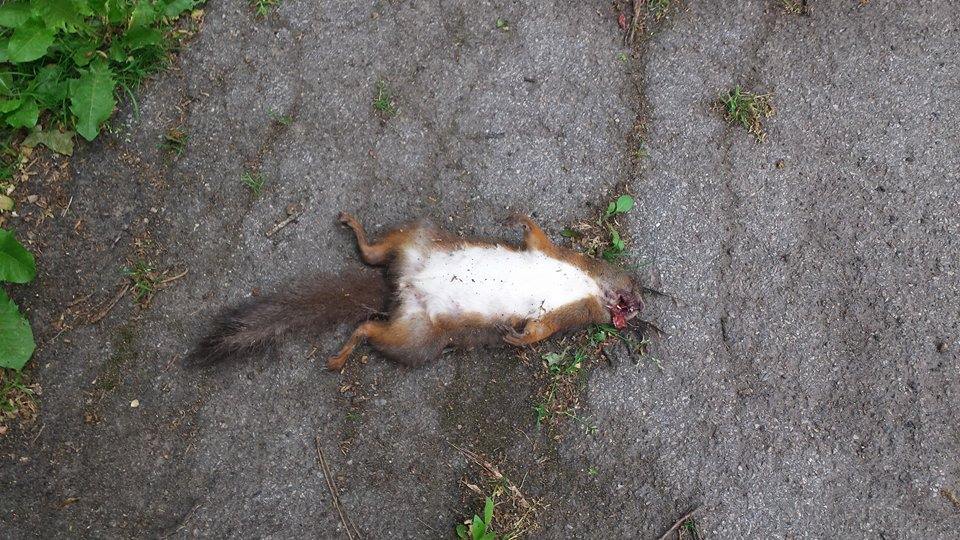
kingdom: Animalia
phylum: Chordata
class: Mammalia
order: Rodentia
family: Sciuridae
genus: Sciurus
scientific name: Sciurus vulgaris
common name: Eurasian red squirrel
